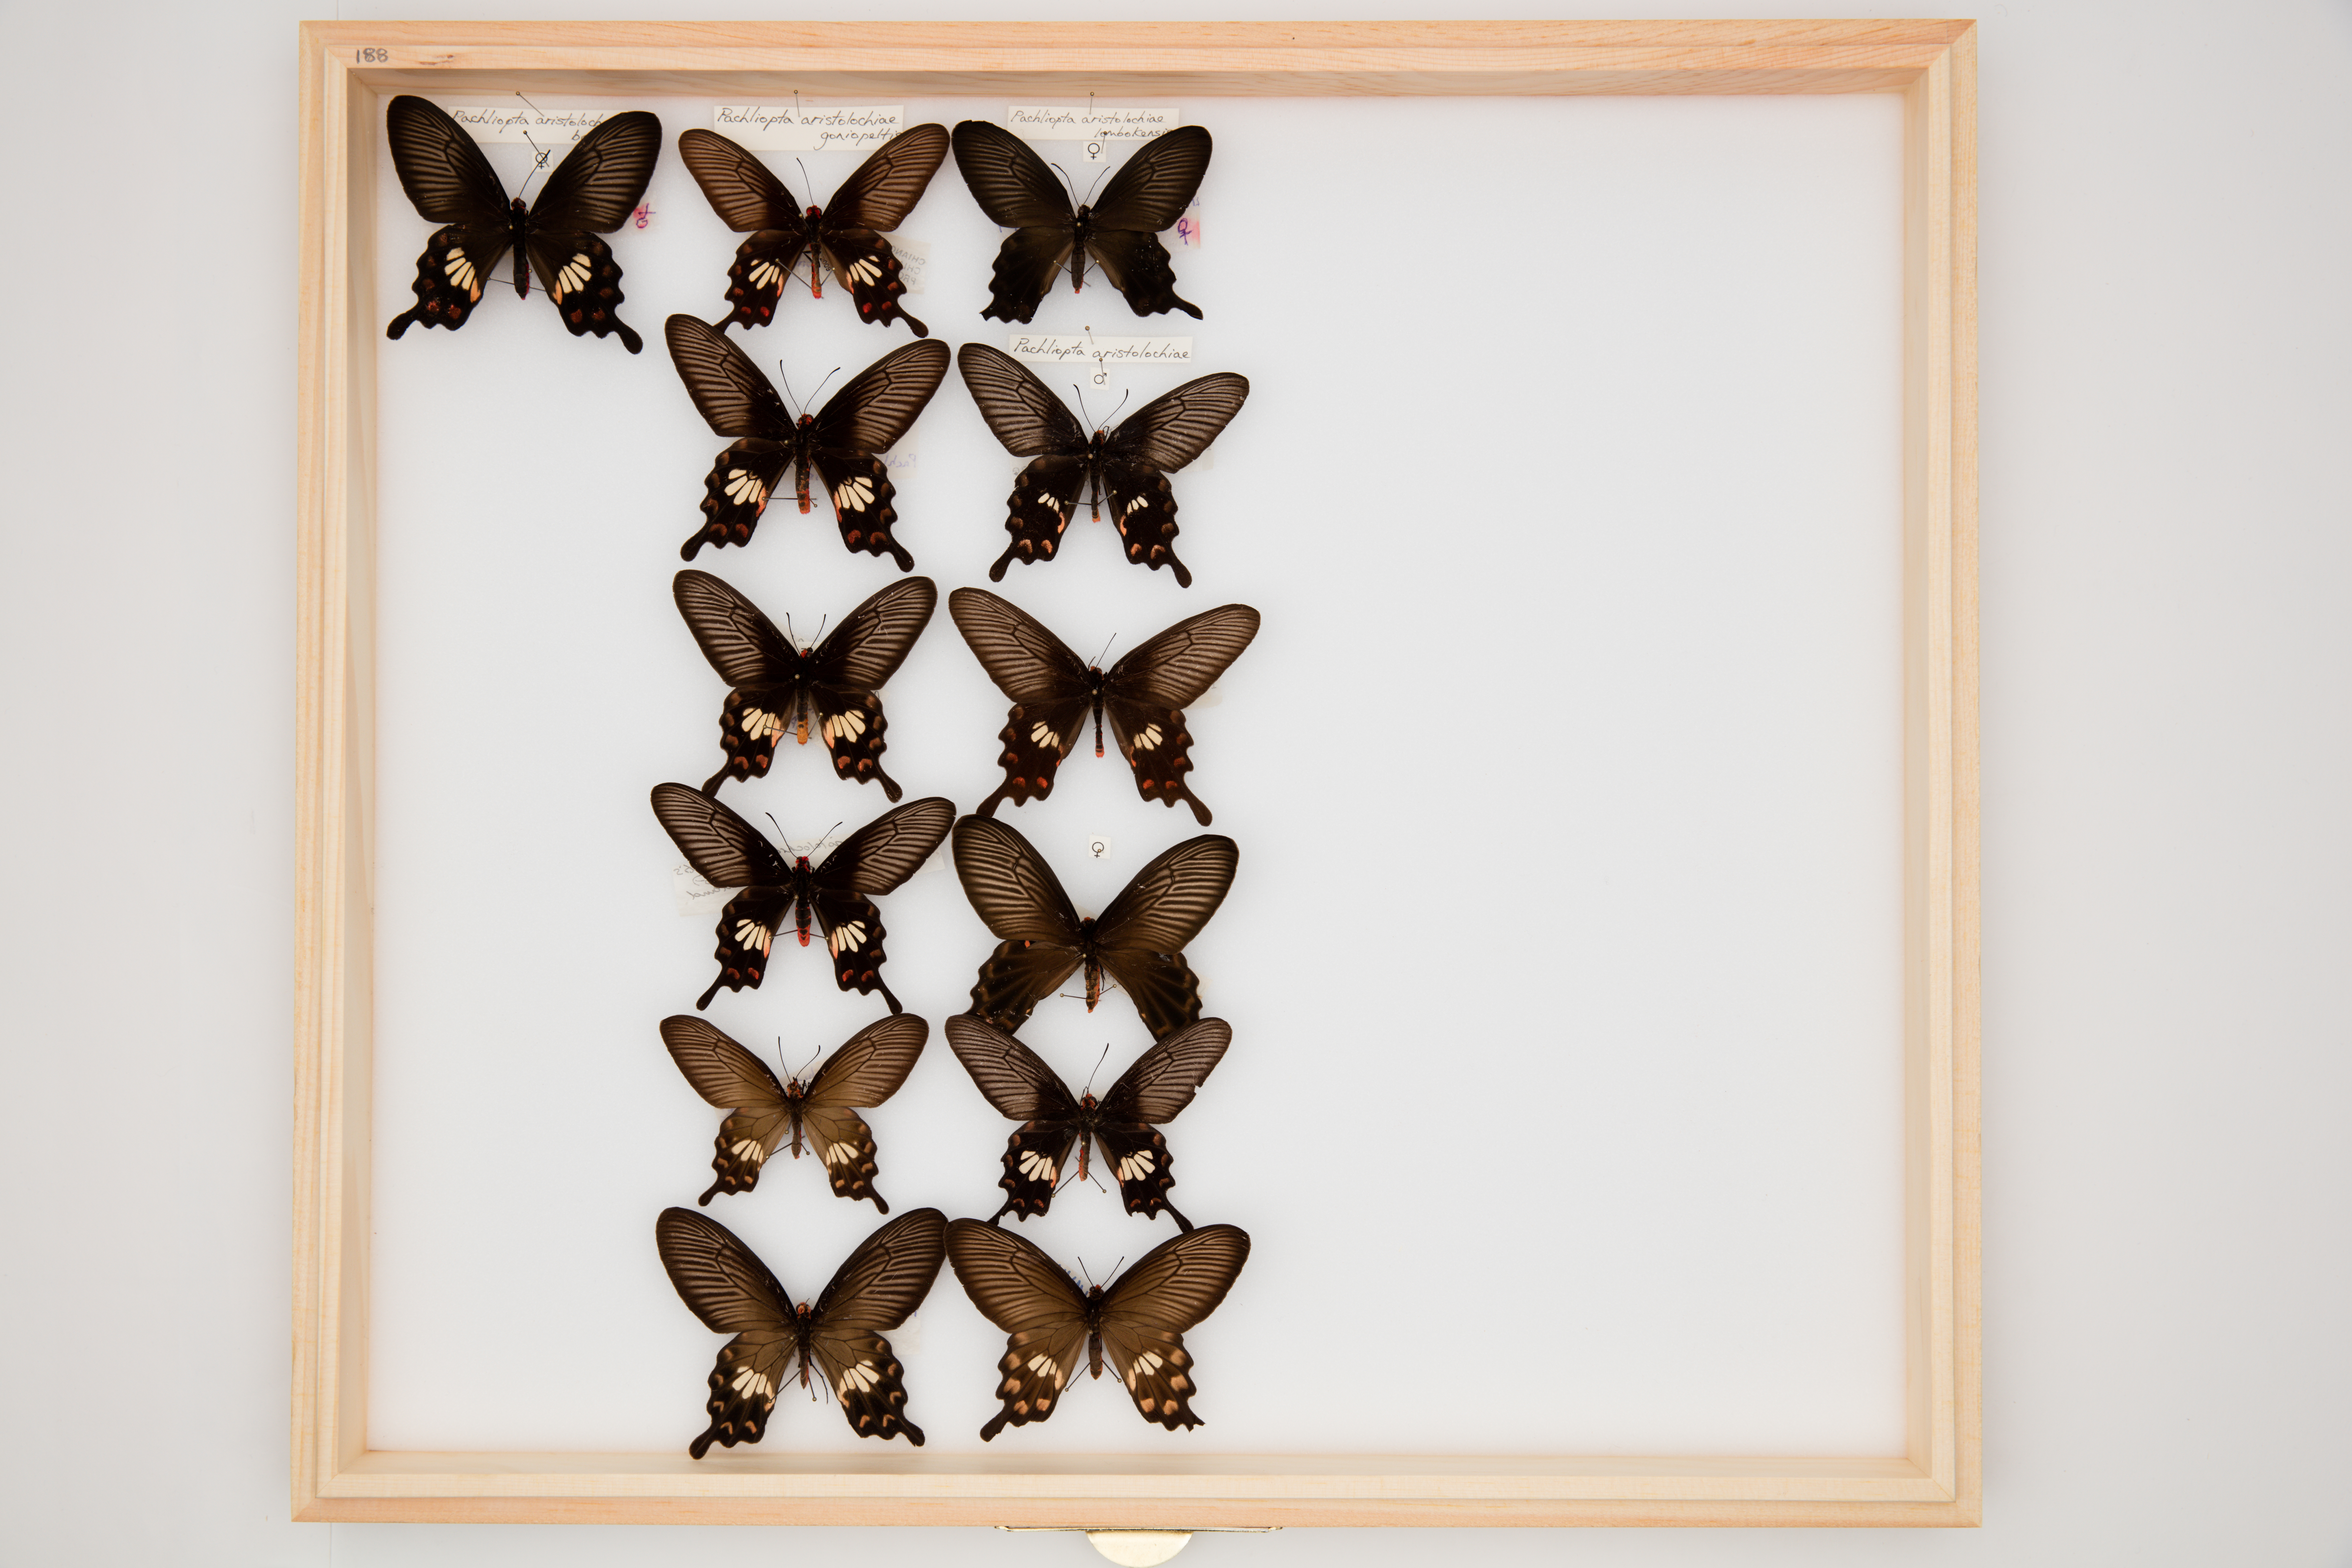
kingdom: Animalia
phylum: Arthropoda
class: Insecta
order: Lepidoptera
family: Papilionidae
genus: Pachliopta
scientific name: Pachliopta aristolochiae
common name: Common rose
